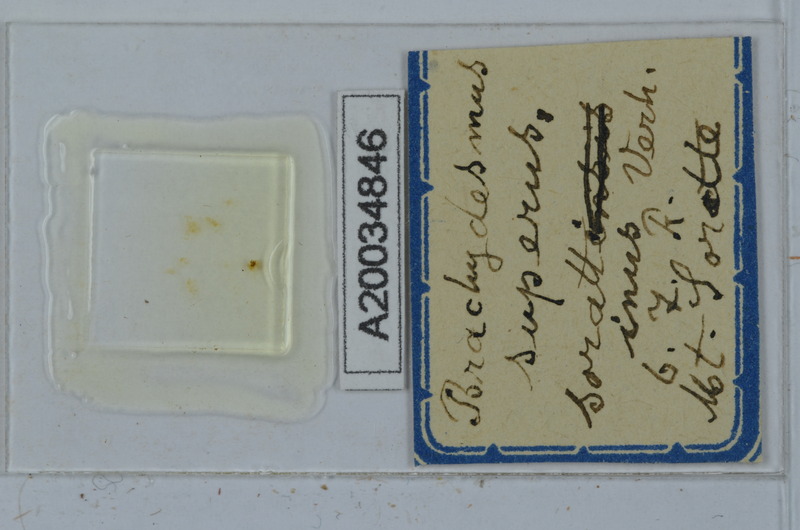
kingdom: Animalia
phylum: Arthropoda
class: Diplopoda
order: Polydesmida
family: Polydesmidae
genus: Brachydesmus
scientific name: Brachydesmus superus
